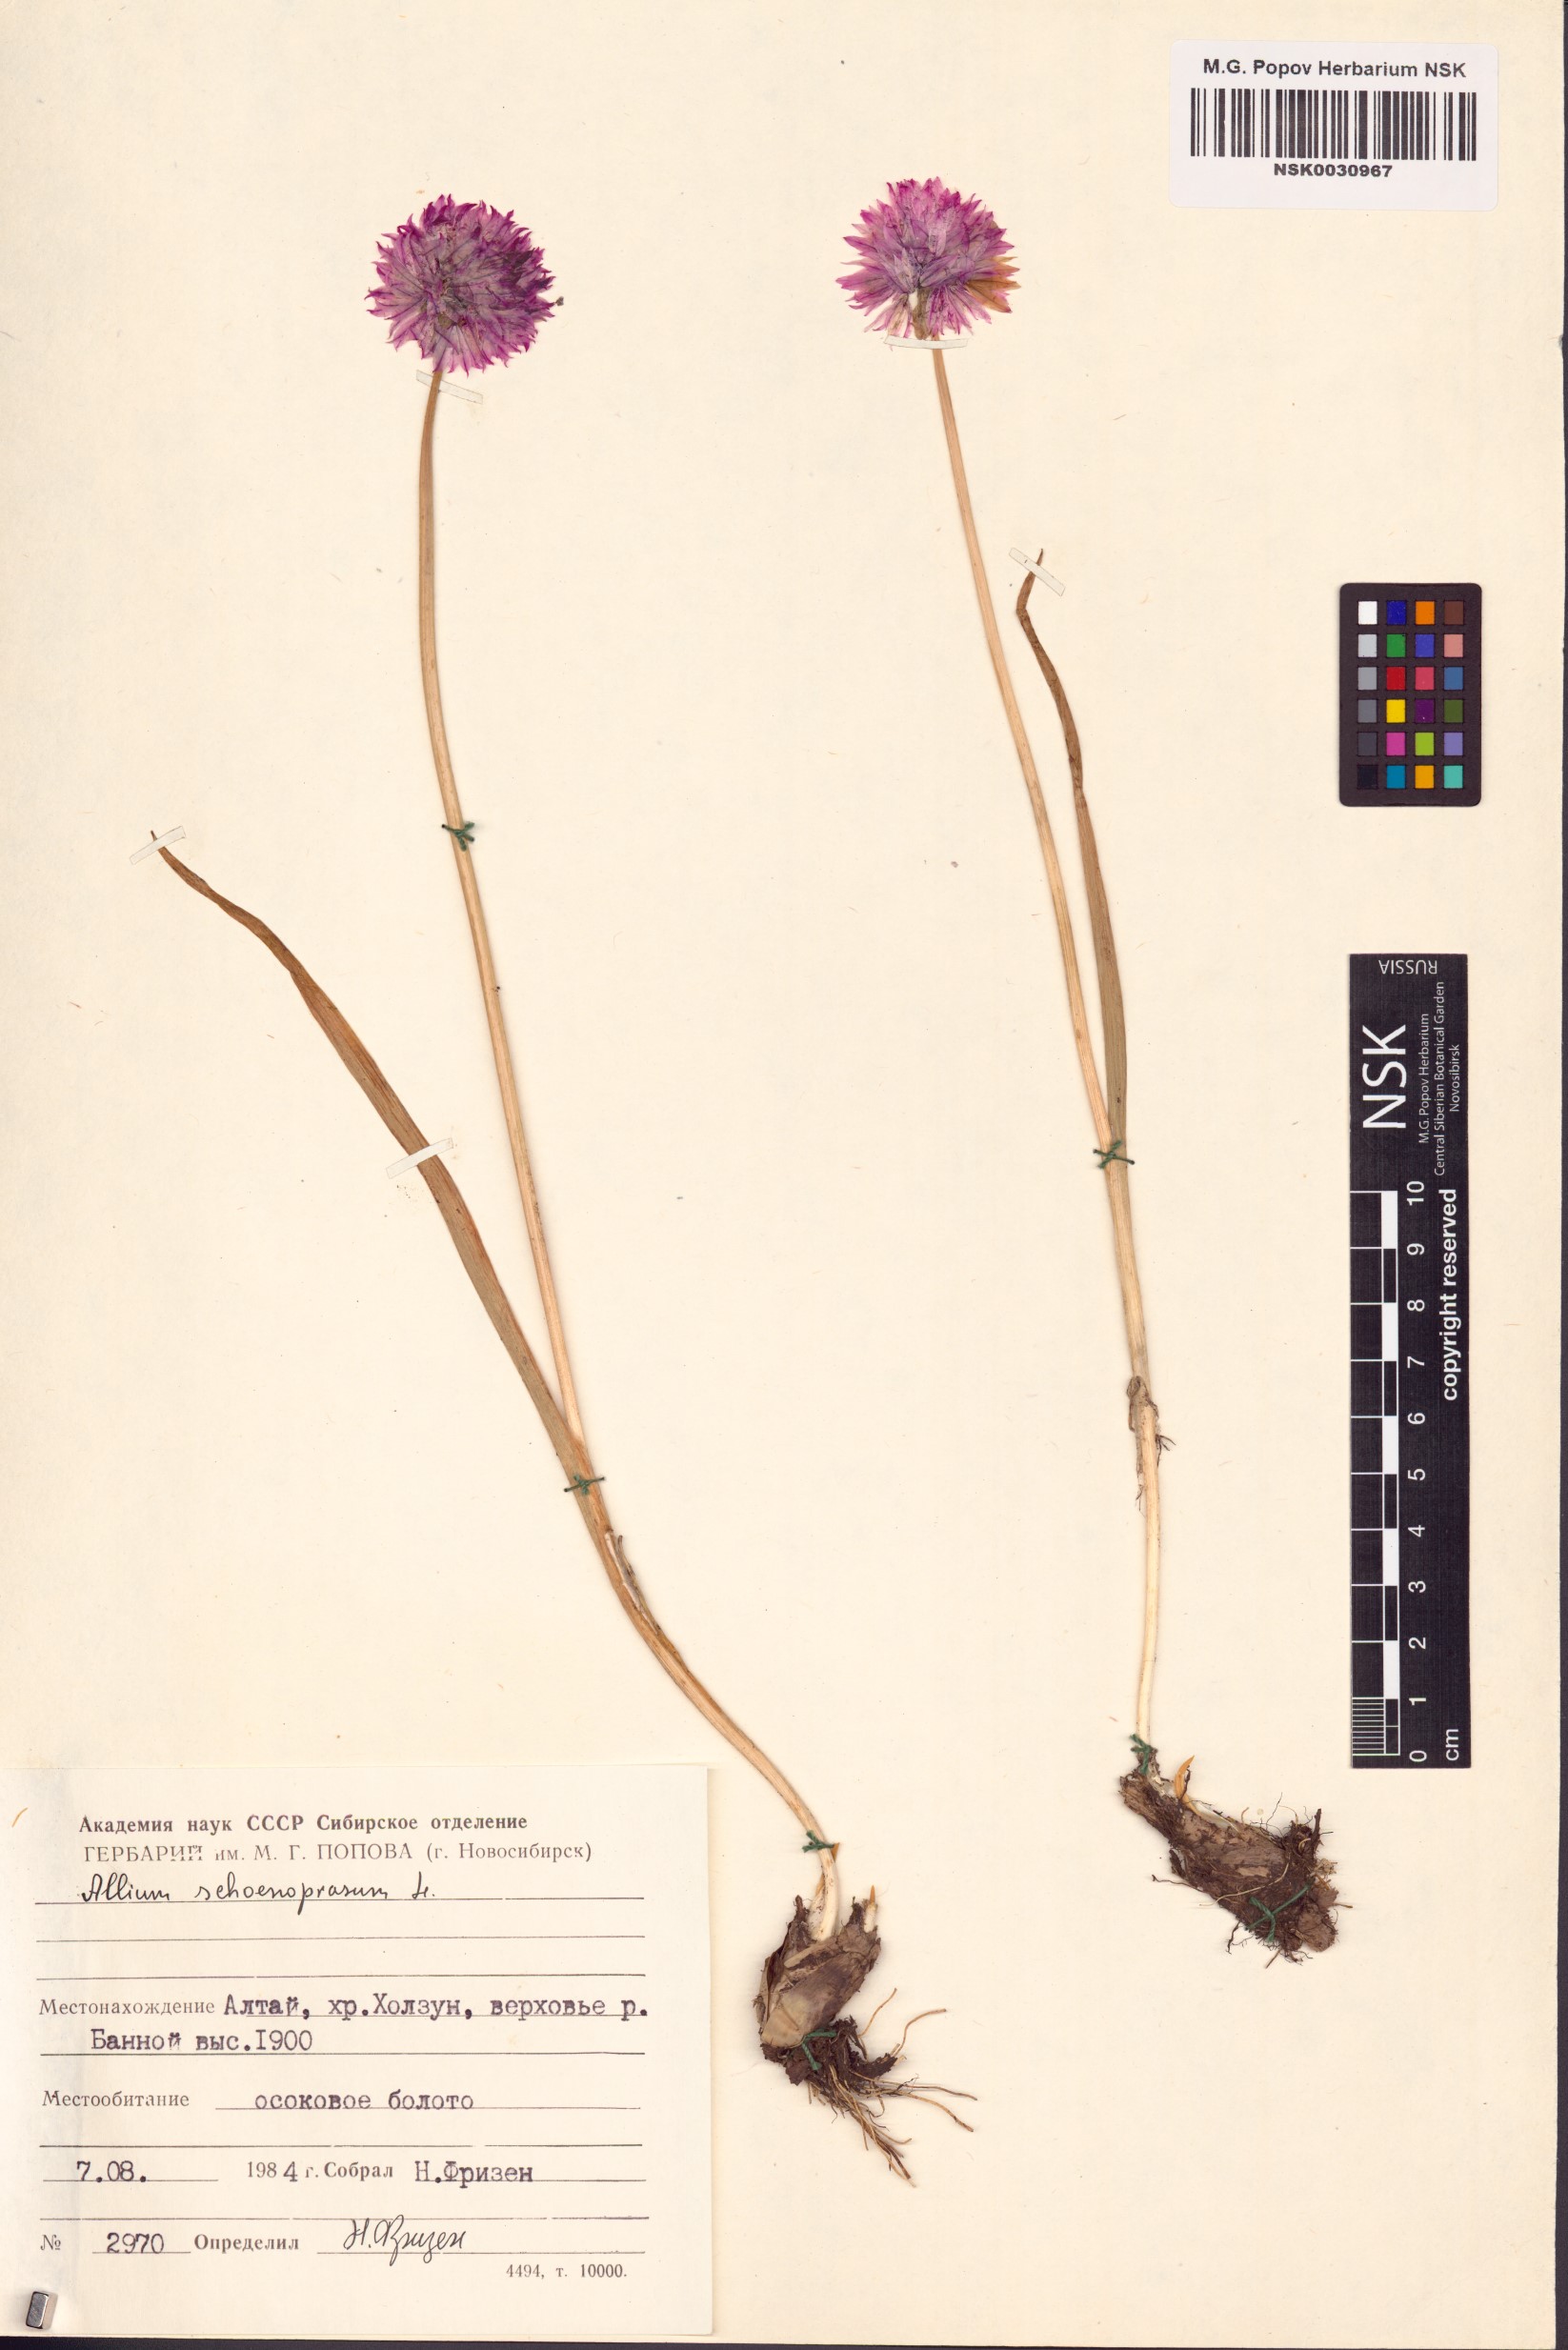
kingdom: Plantae
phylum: Tracheophyta
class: Liliopsida
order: Asparagales
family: Amaryllidaceae
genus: Allium
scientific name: Allium schoenoprasum
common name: Chives
